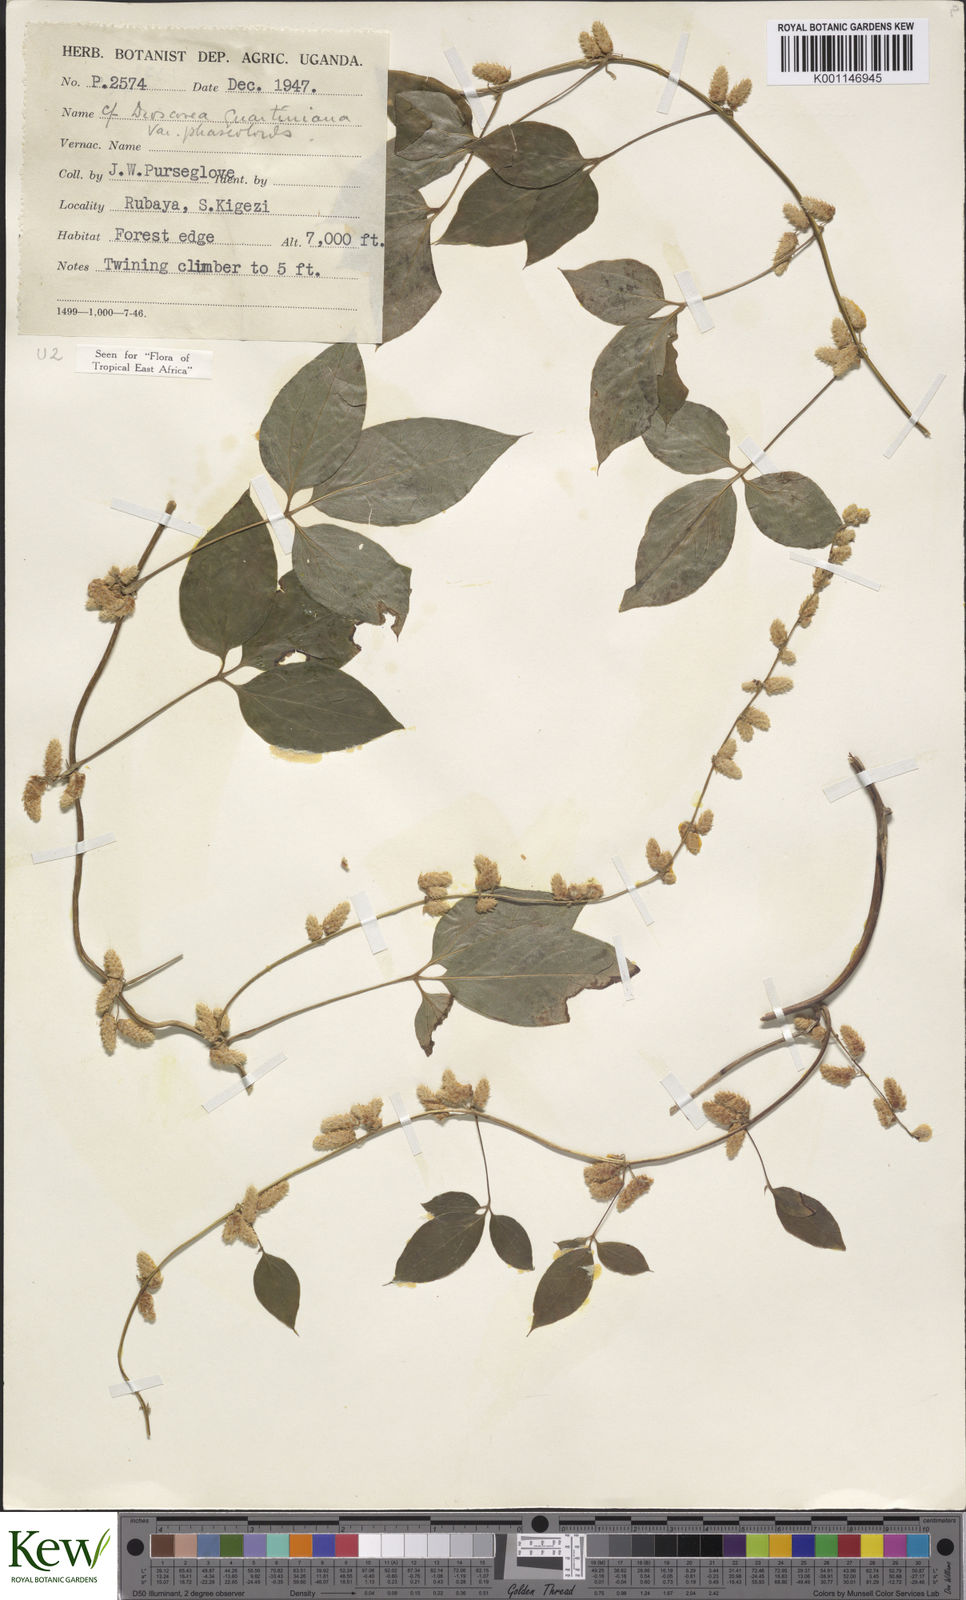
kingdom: Plantae
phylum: Tracheophyta
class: Liliopsida
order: Dioscoreales
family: Dioscoreaceae
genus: Dioscorea
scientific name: Dioscorea quartiniana
